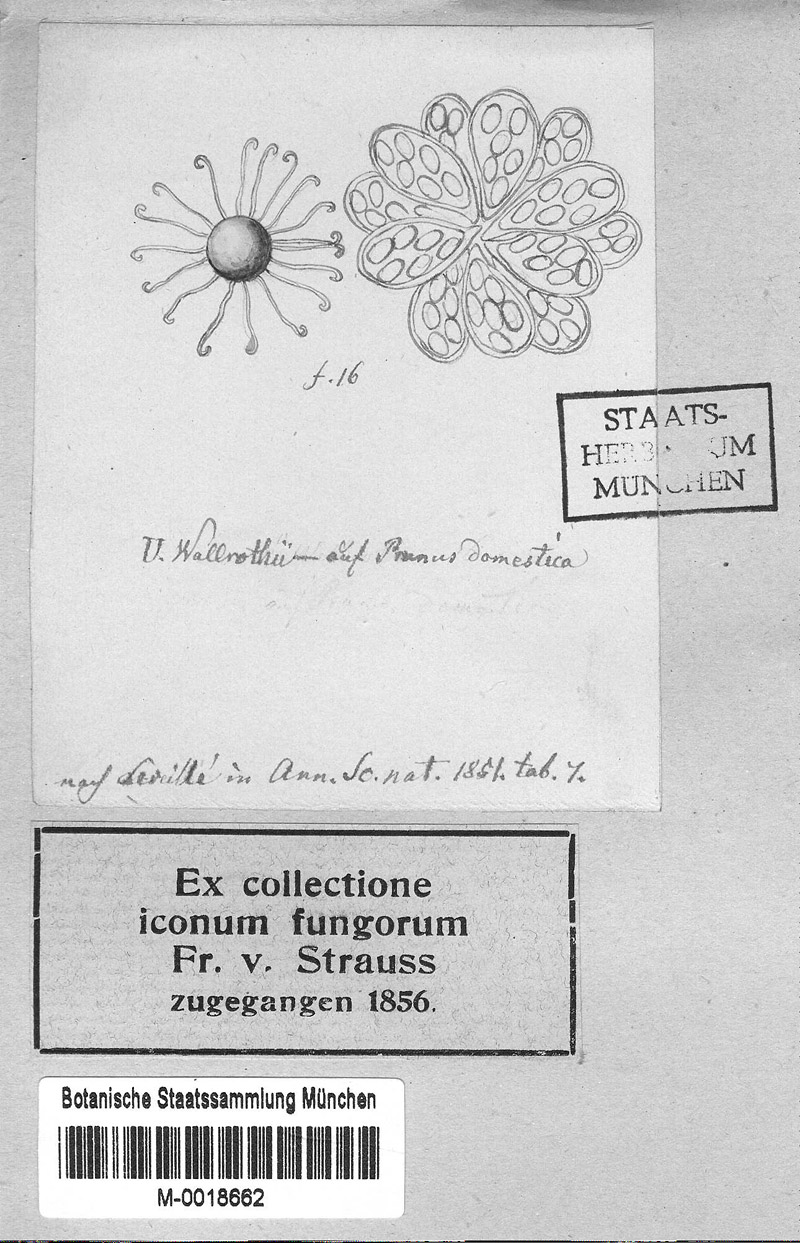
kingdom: Fungi
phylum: Ascomycota
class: Leotiomycetes
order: Helotiales
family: Erysiphaceae
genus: Erysiphe
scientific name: Erysiphe prunastri
